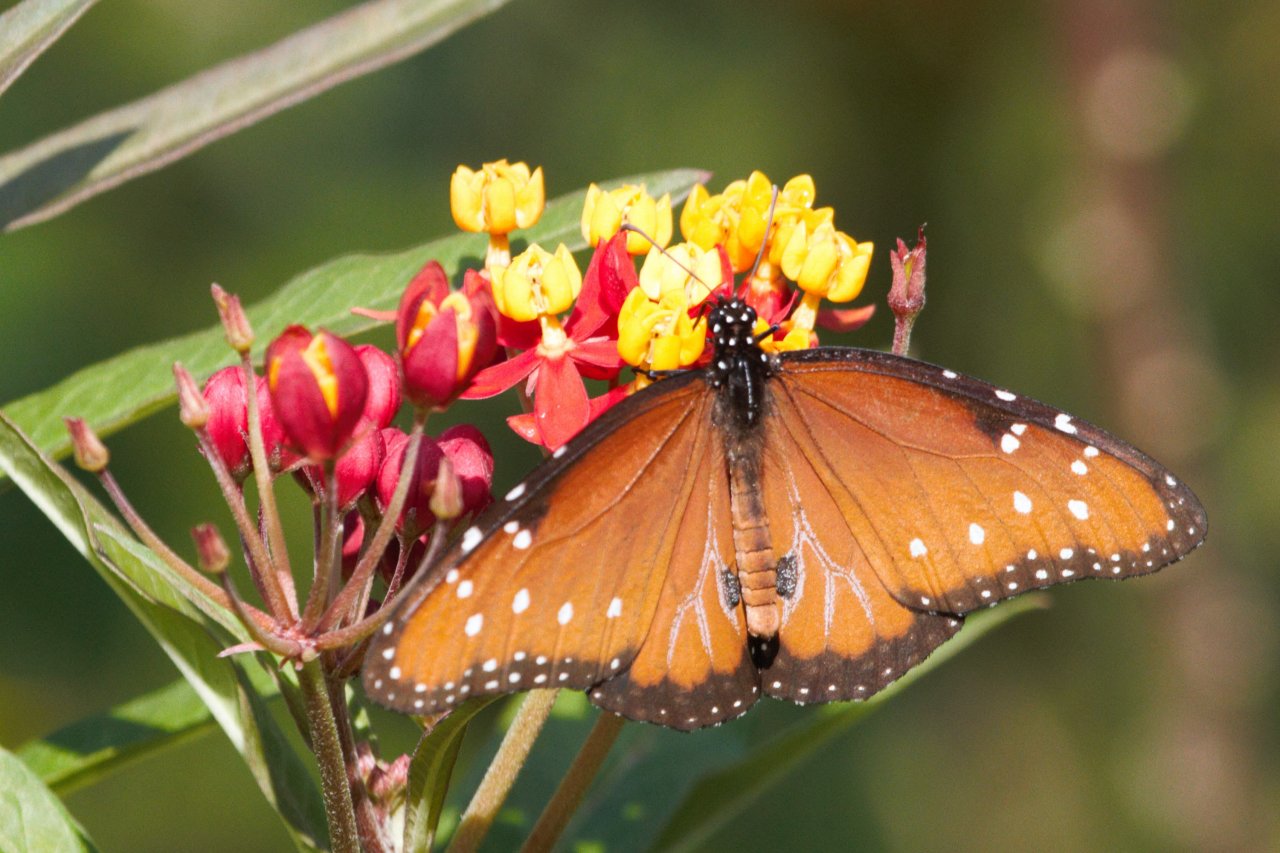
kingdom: Animalia
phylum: Arthropoda
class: Insecta
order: Lepidoptera
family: Nymphalidae
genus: Danaus
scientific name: Danaus gilippus
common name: Queen
